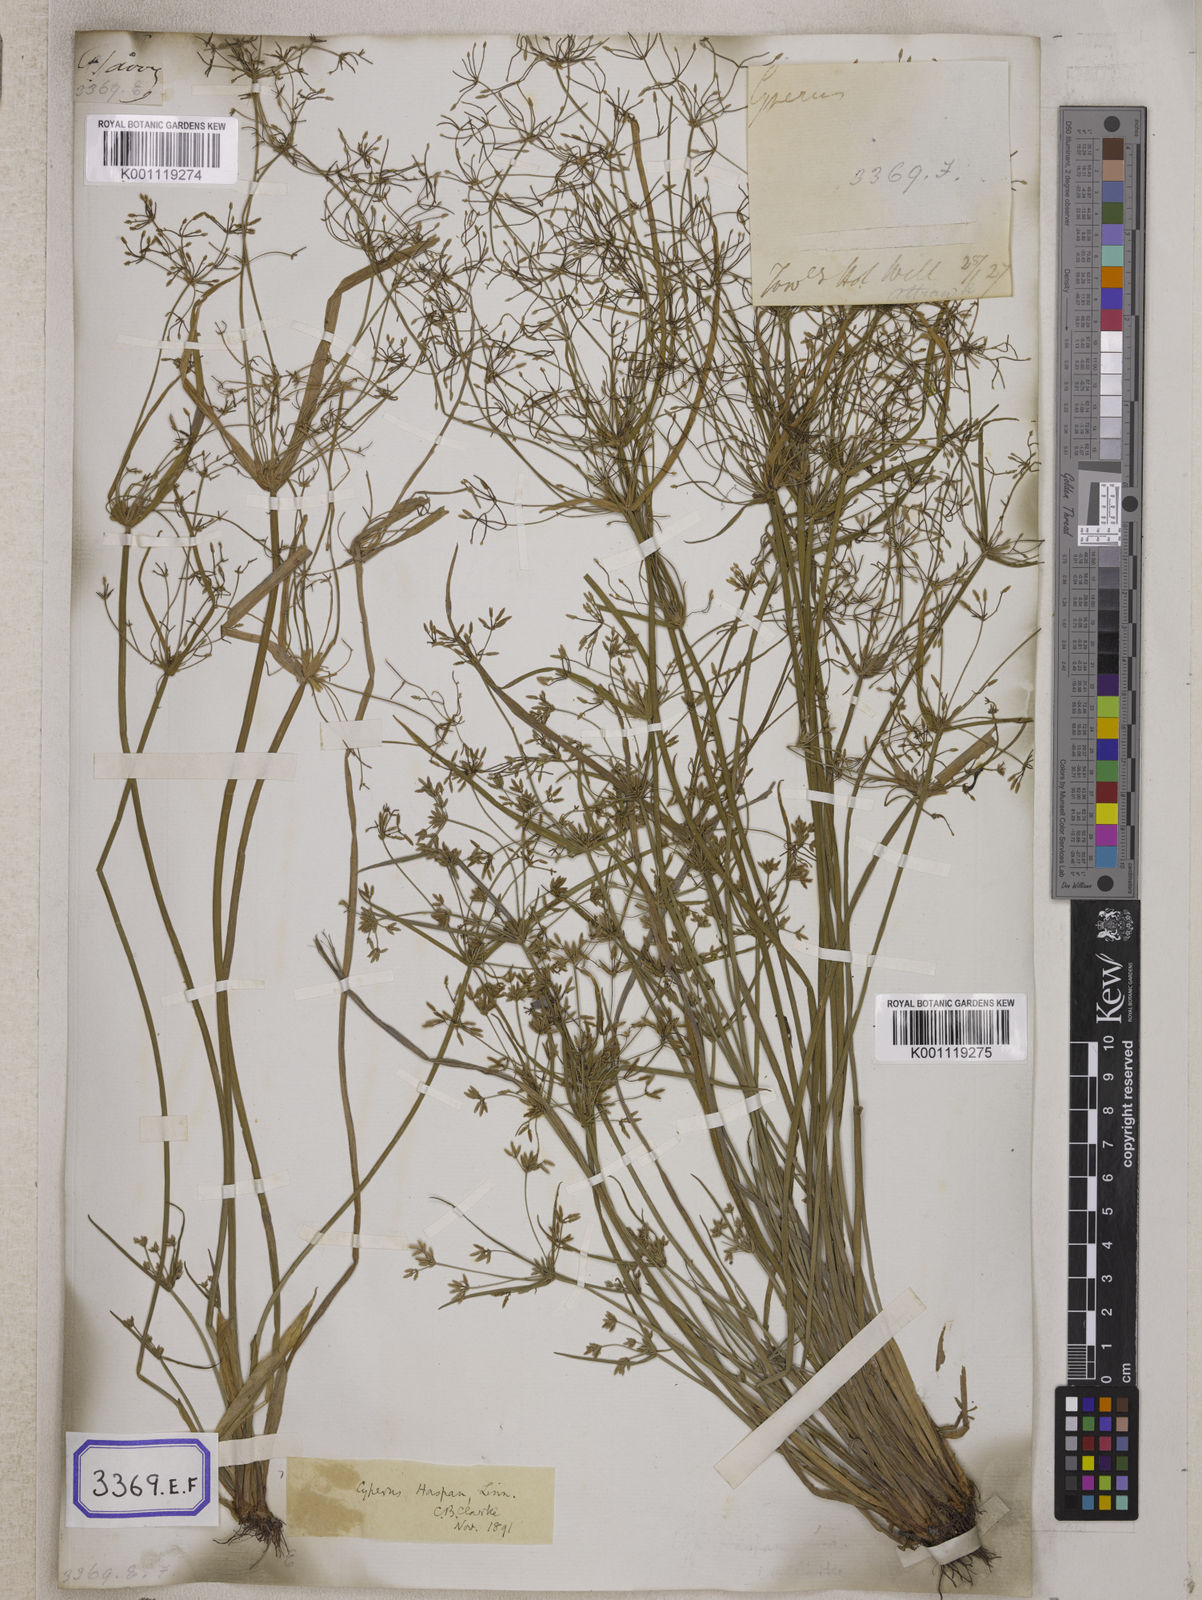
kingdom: Plantae
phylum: Tracheophyta
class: Liliopsida
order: Poales
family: Cyperaceae
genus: Cyperus
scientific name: Cyperus
